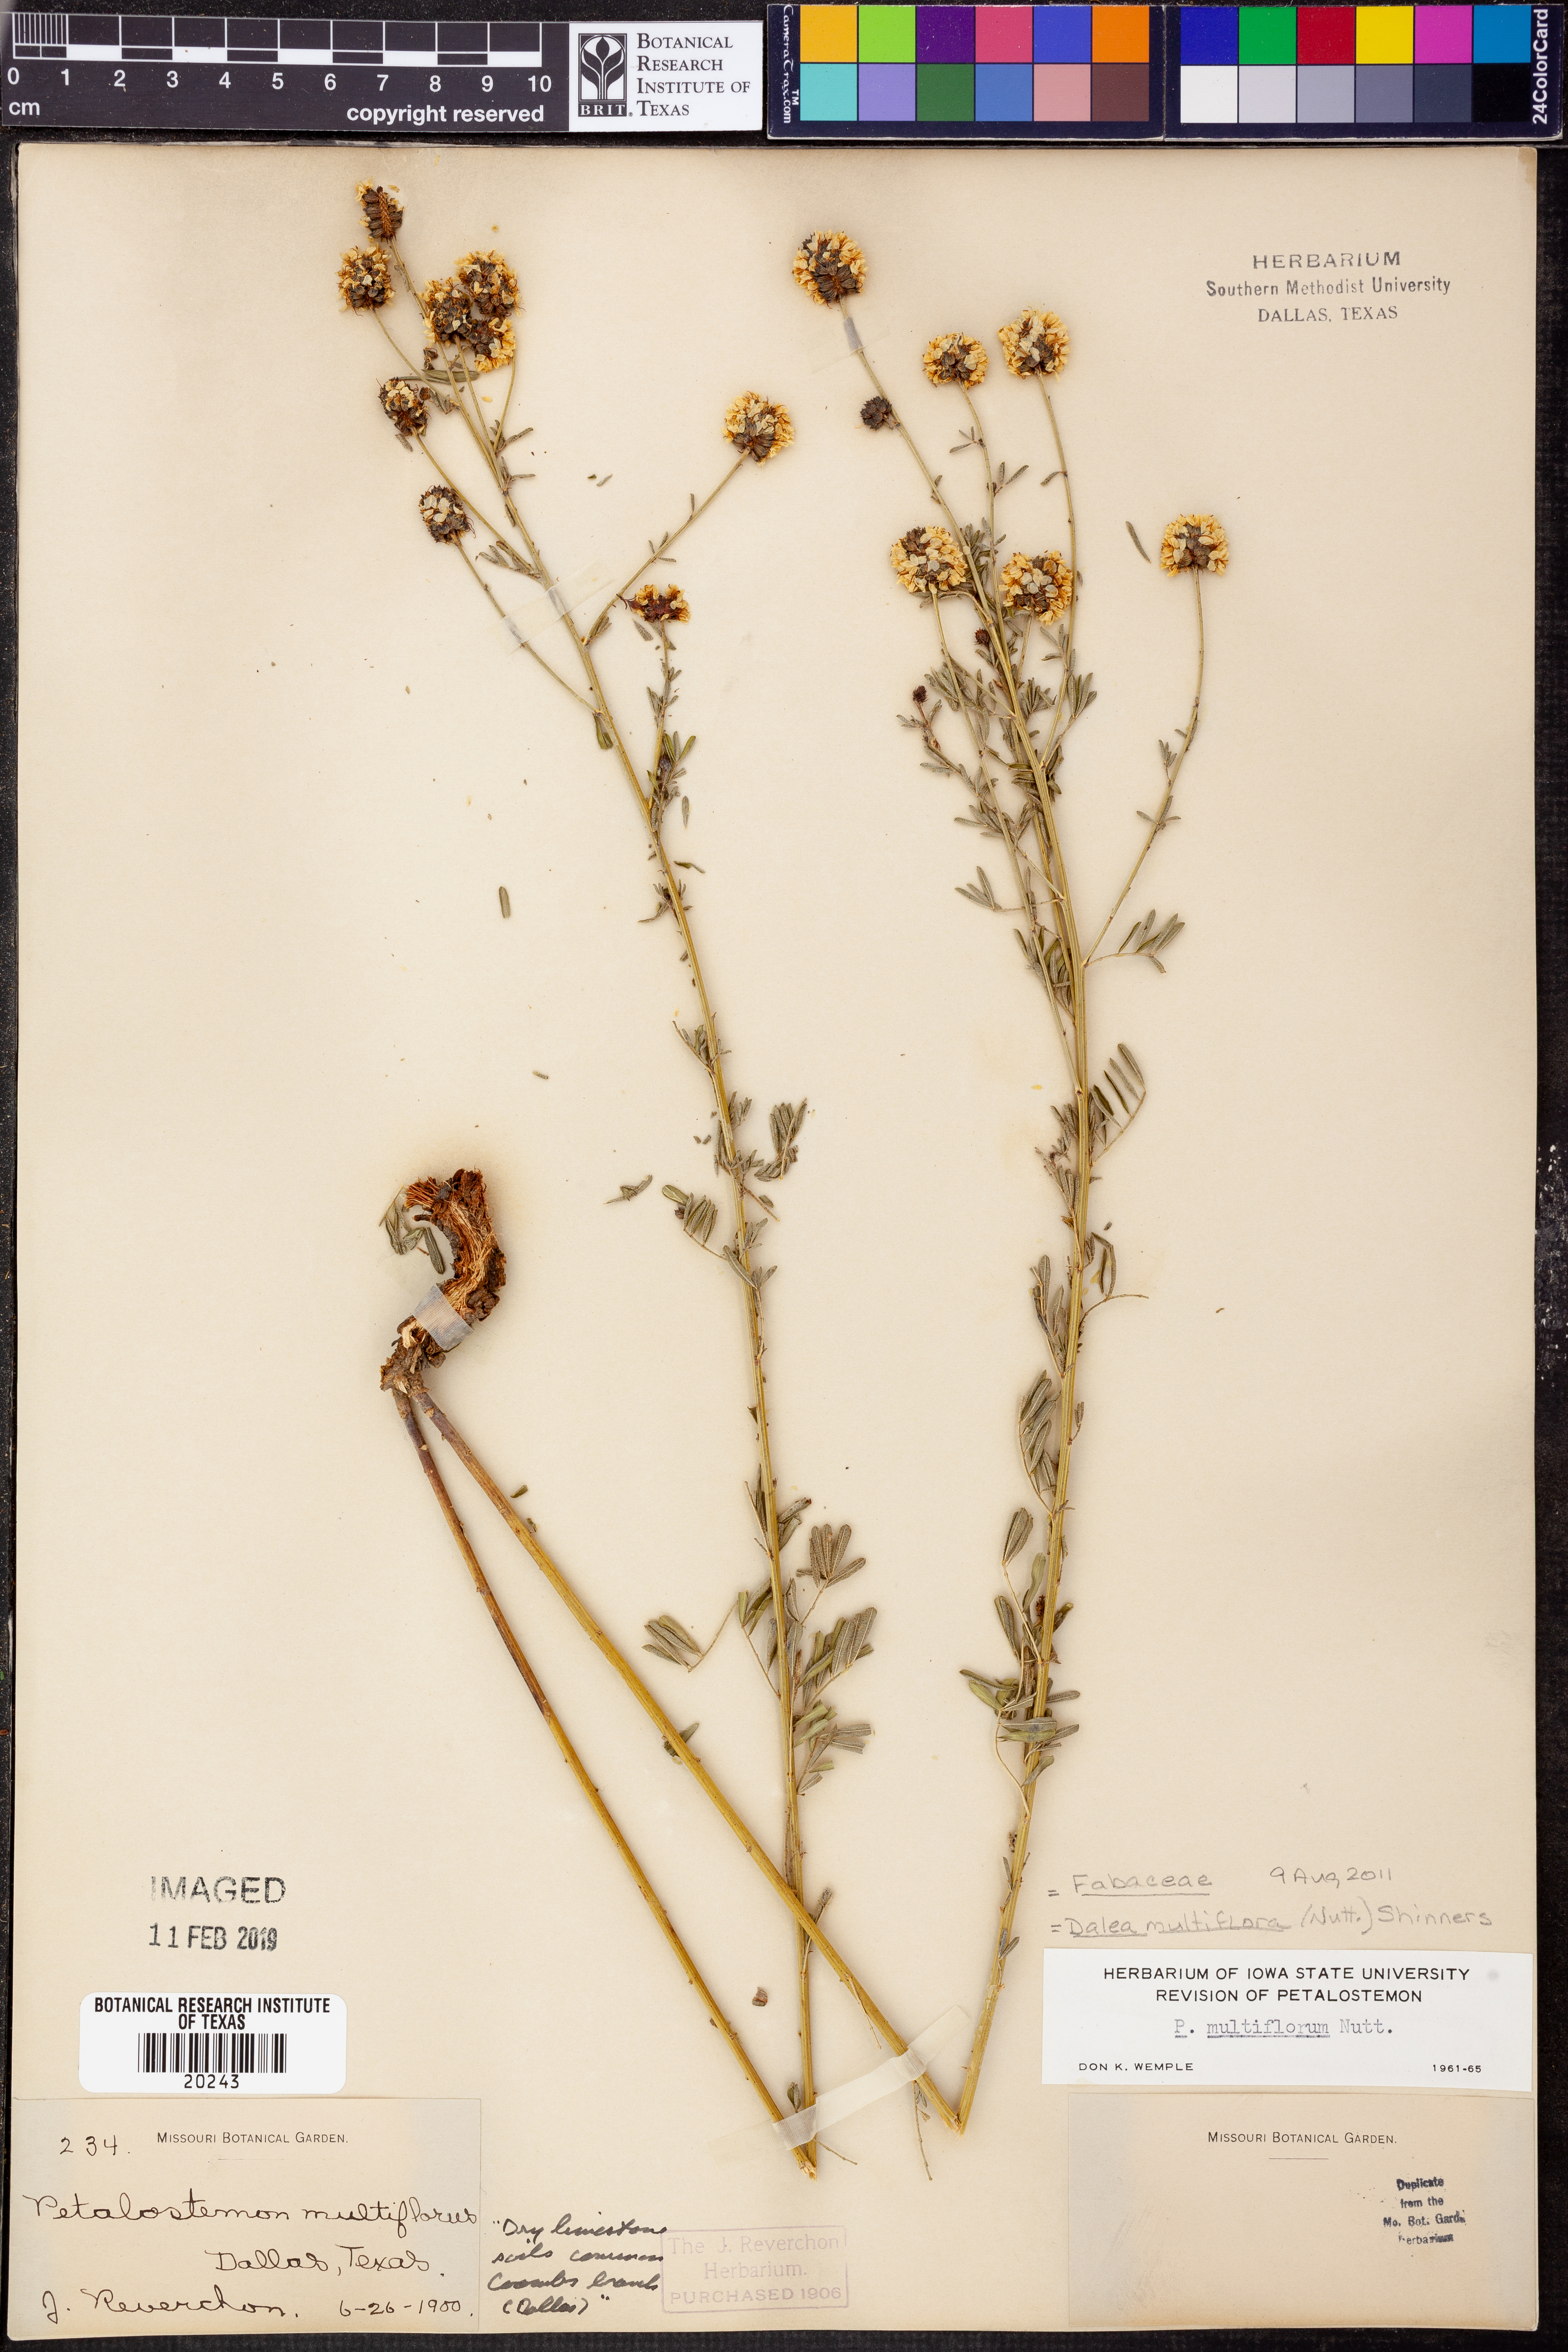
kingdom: Plantae
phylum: Tracheophyta
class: Magnoliopsida
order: Fabales
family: Fabaceae
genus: Dalea
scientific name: Dalea multiflora
